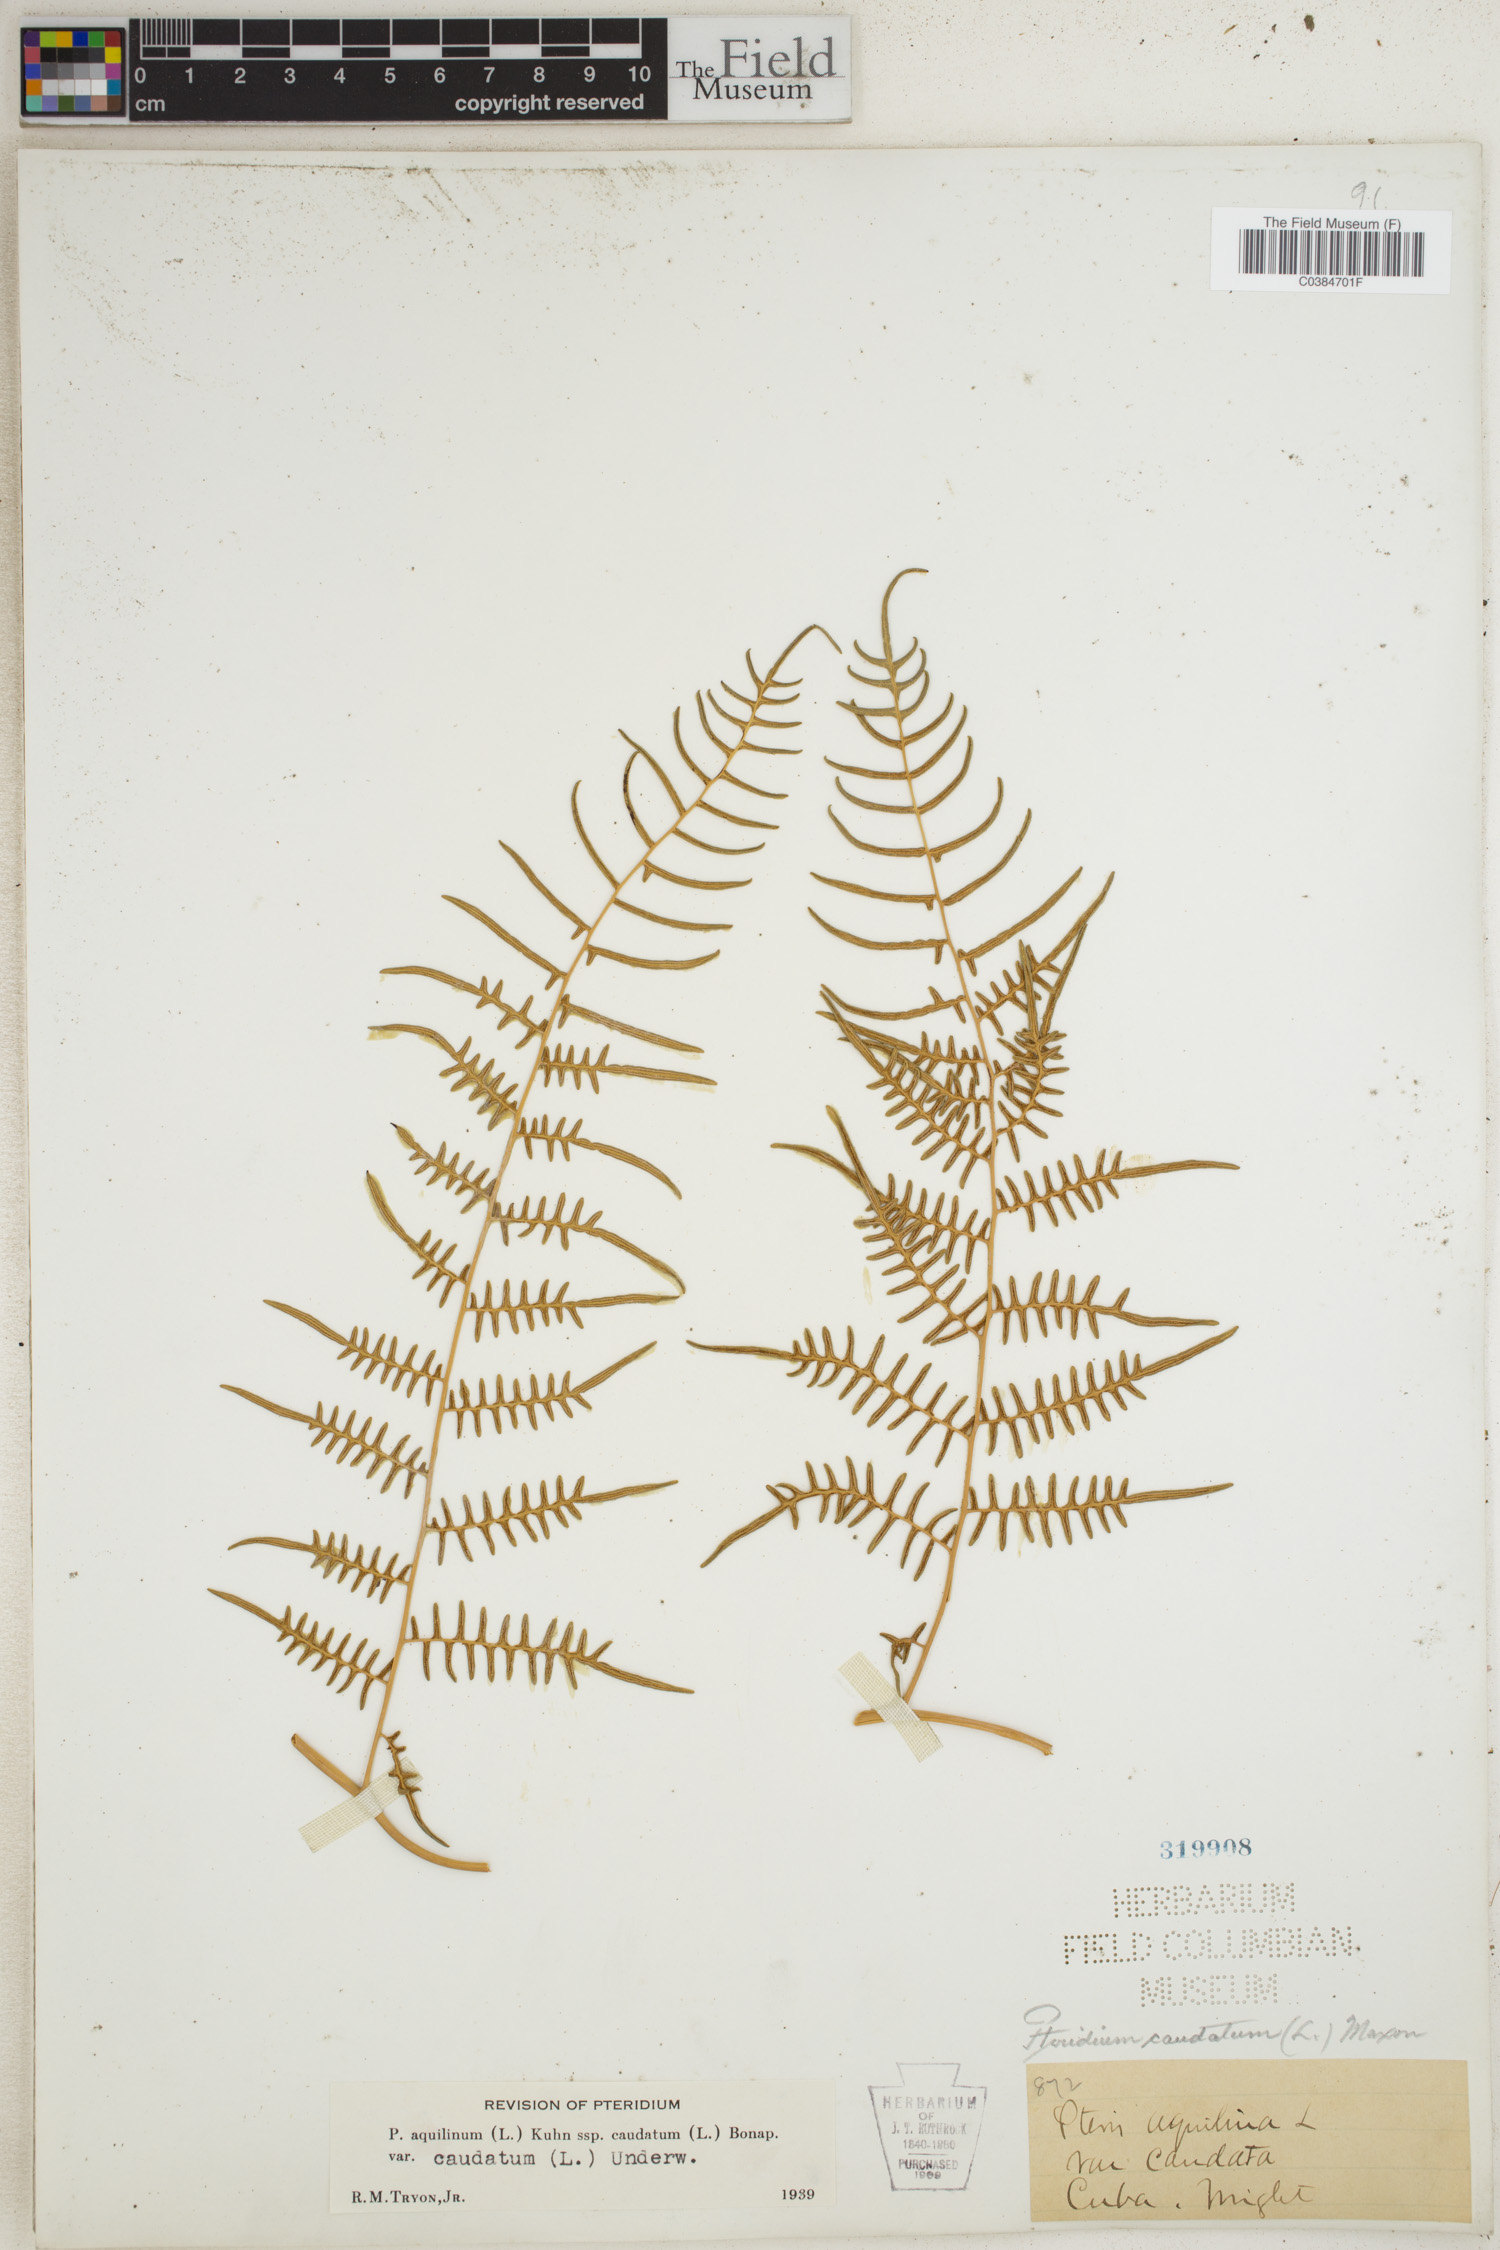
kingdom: Plantae
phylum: Tracheophyta
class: Polypodiopsida
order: Polypodiales
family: Dennstaedtiaceae
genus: Pteridium
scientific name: Pteridium caudatum
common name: Southern bracken fern
